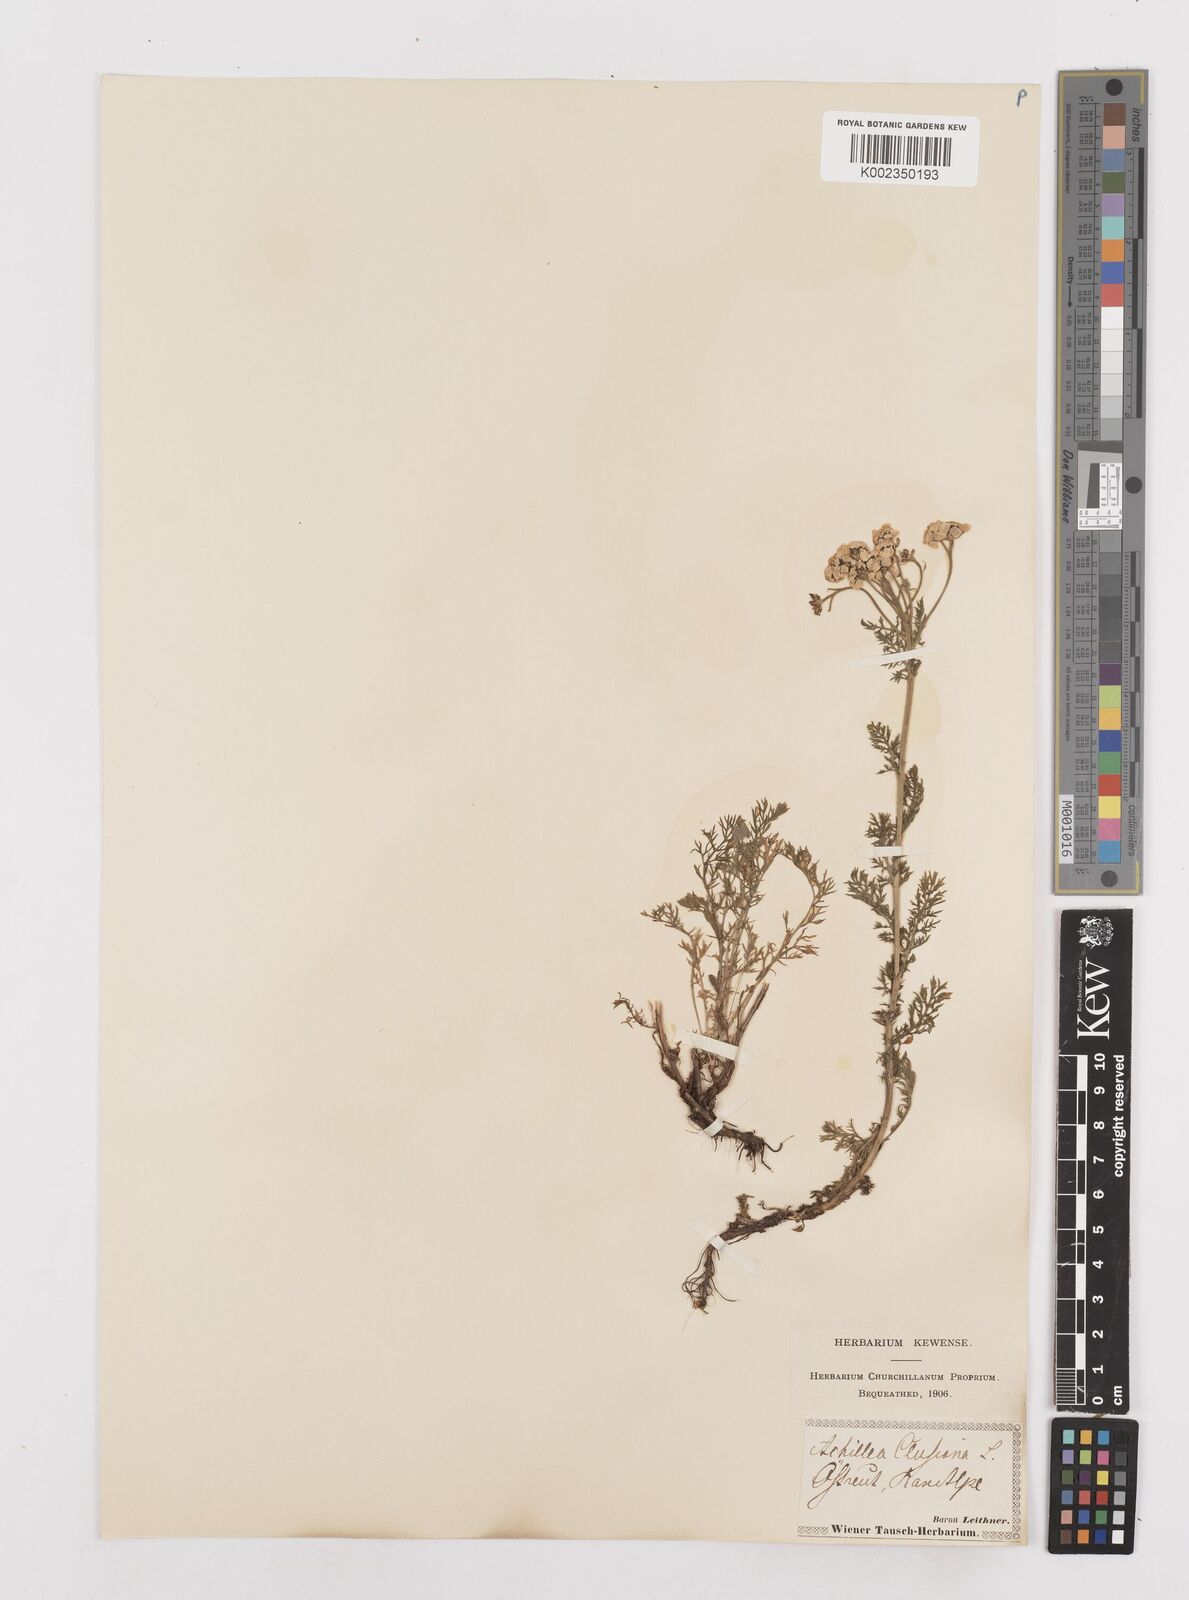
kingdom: Plantae
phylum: Tracheophyta
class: Magnoliopsida
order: Asterales
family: Asteraceae
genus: Achillea
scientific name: Achillea clusiana
